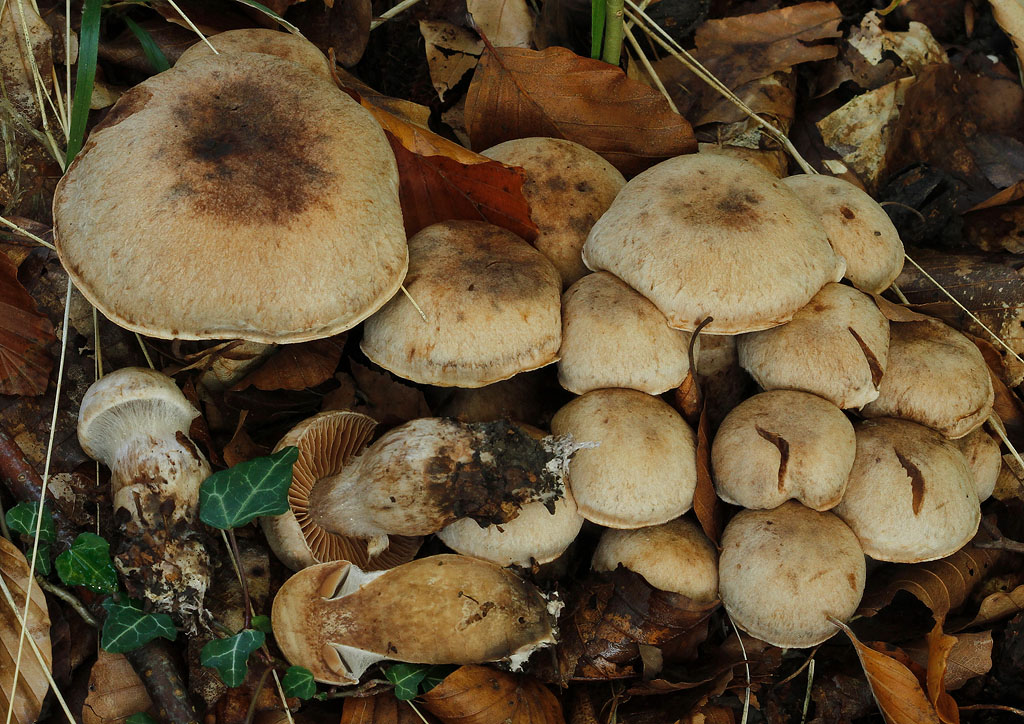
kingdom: Fungi
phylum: Basidiomycota
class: Agaricomycetes
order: Agaricales
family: Cortinariaceae
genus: Cortinarius
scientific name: Cortinarius aprinus
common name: vildsvine-slørhat
